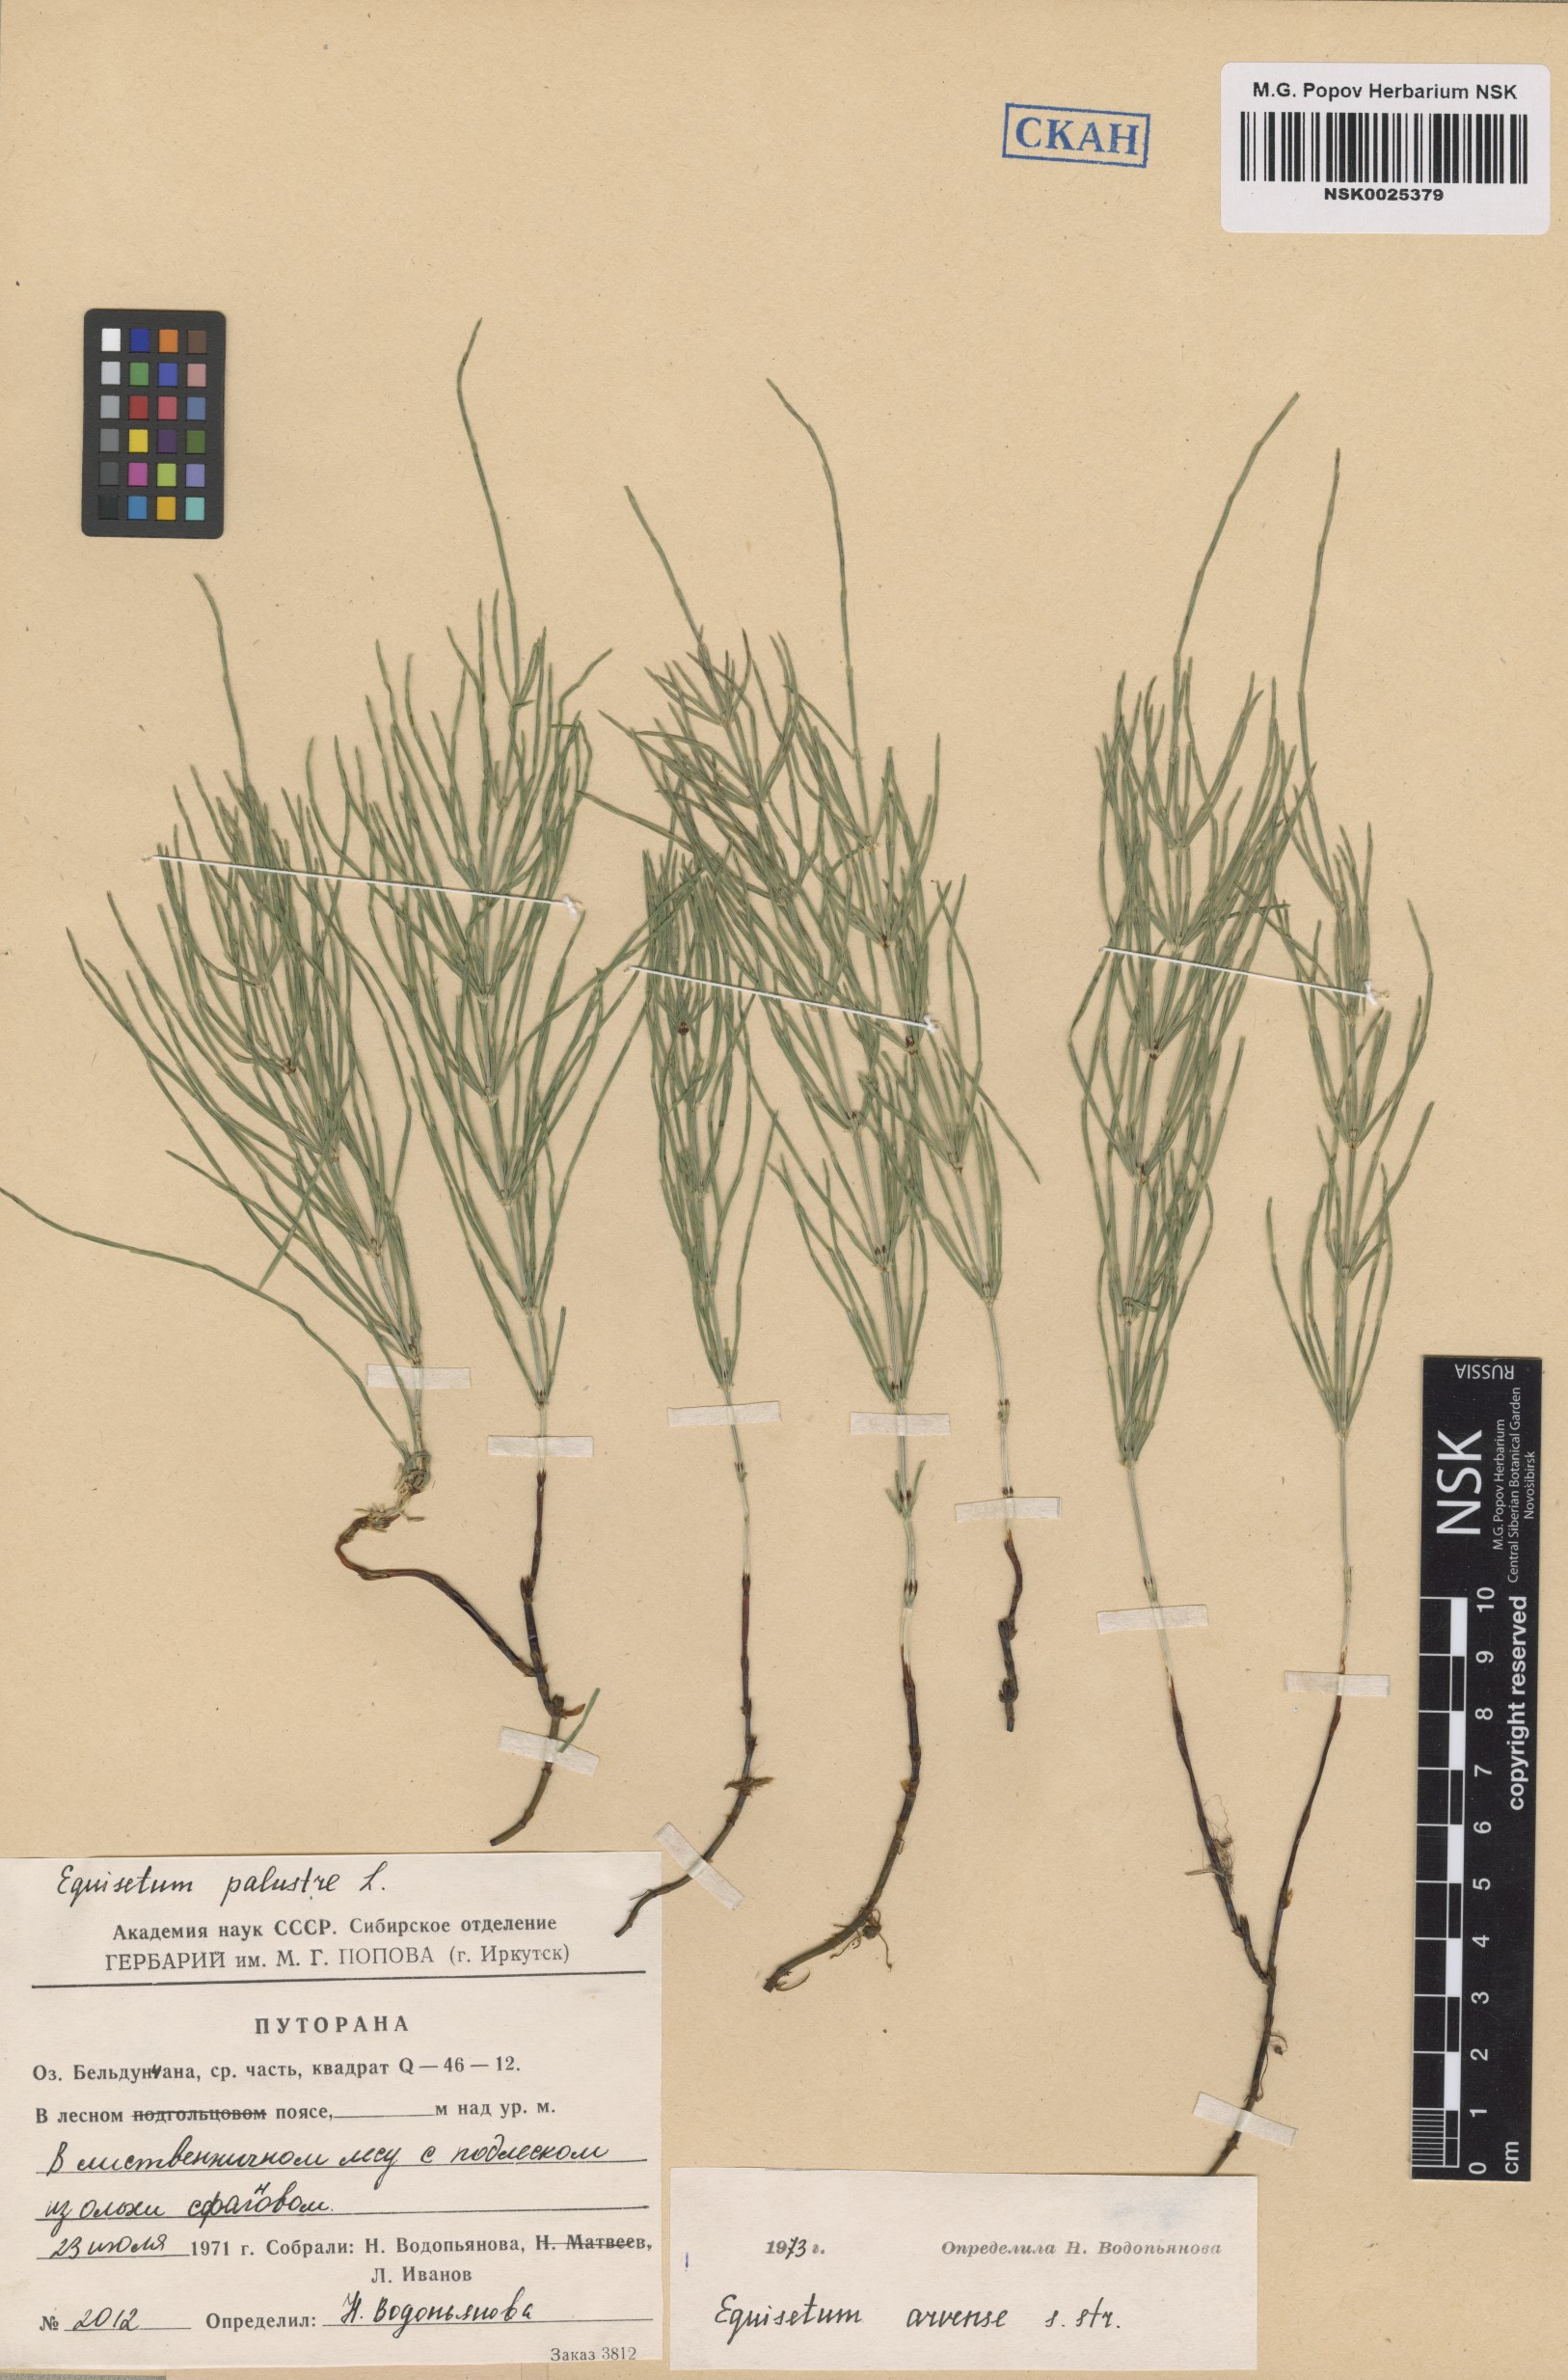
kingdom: Plantae
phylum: Tracheophyta
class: Polypodiopsida
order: Equisetales
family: Equisetaceae
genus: Equisetum
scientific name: Equisetum arvense
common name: Field horsetail
